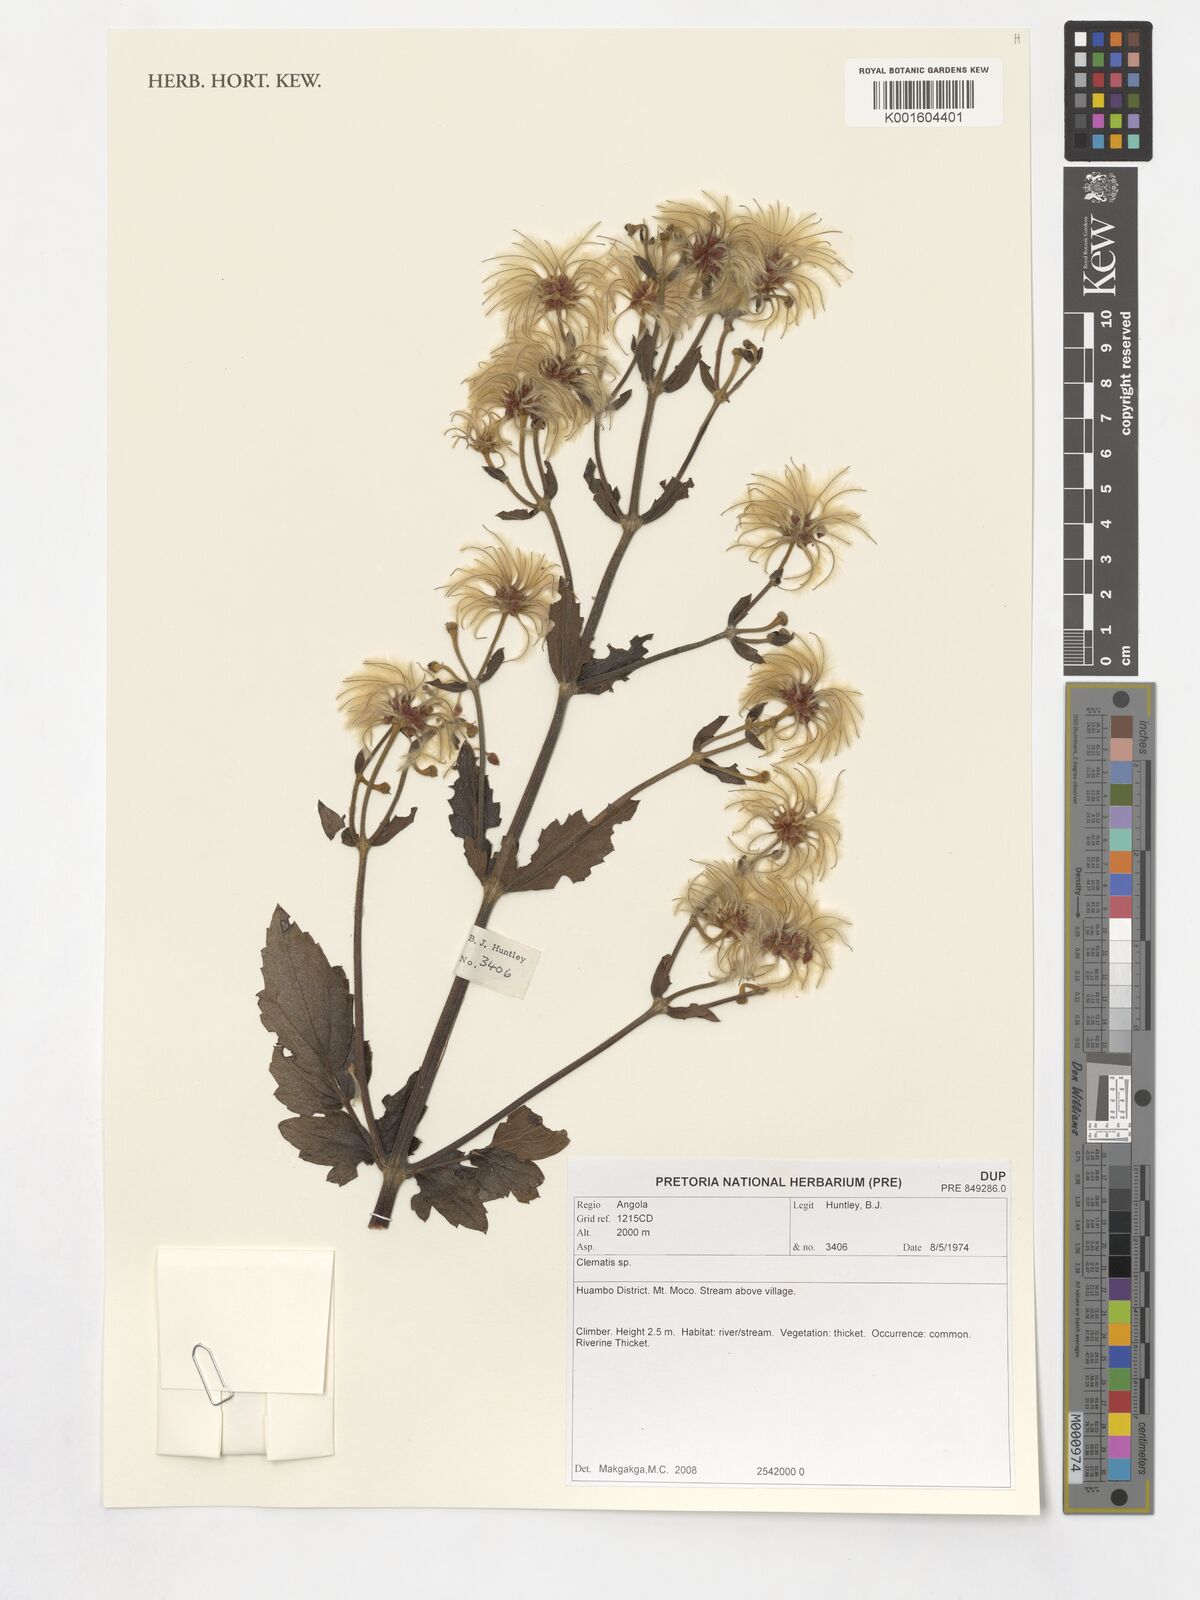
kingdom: Plantae
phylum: Tracheophyta
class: Magnoliopsida
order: Ranunculales
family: Ranunculaceae
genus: Clematis
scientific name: Clematis
